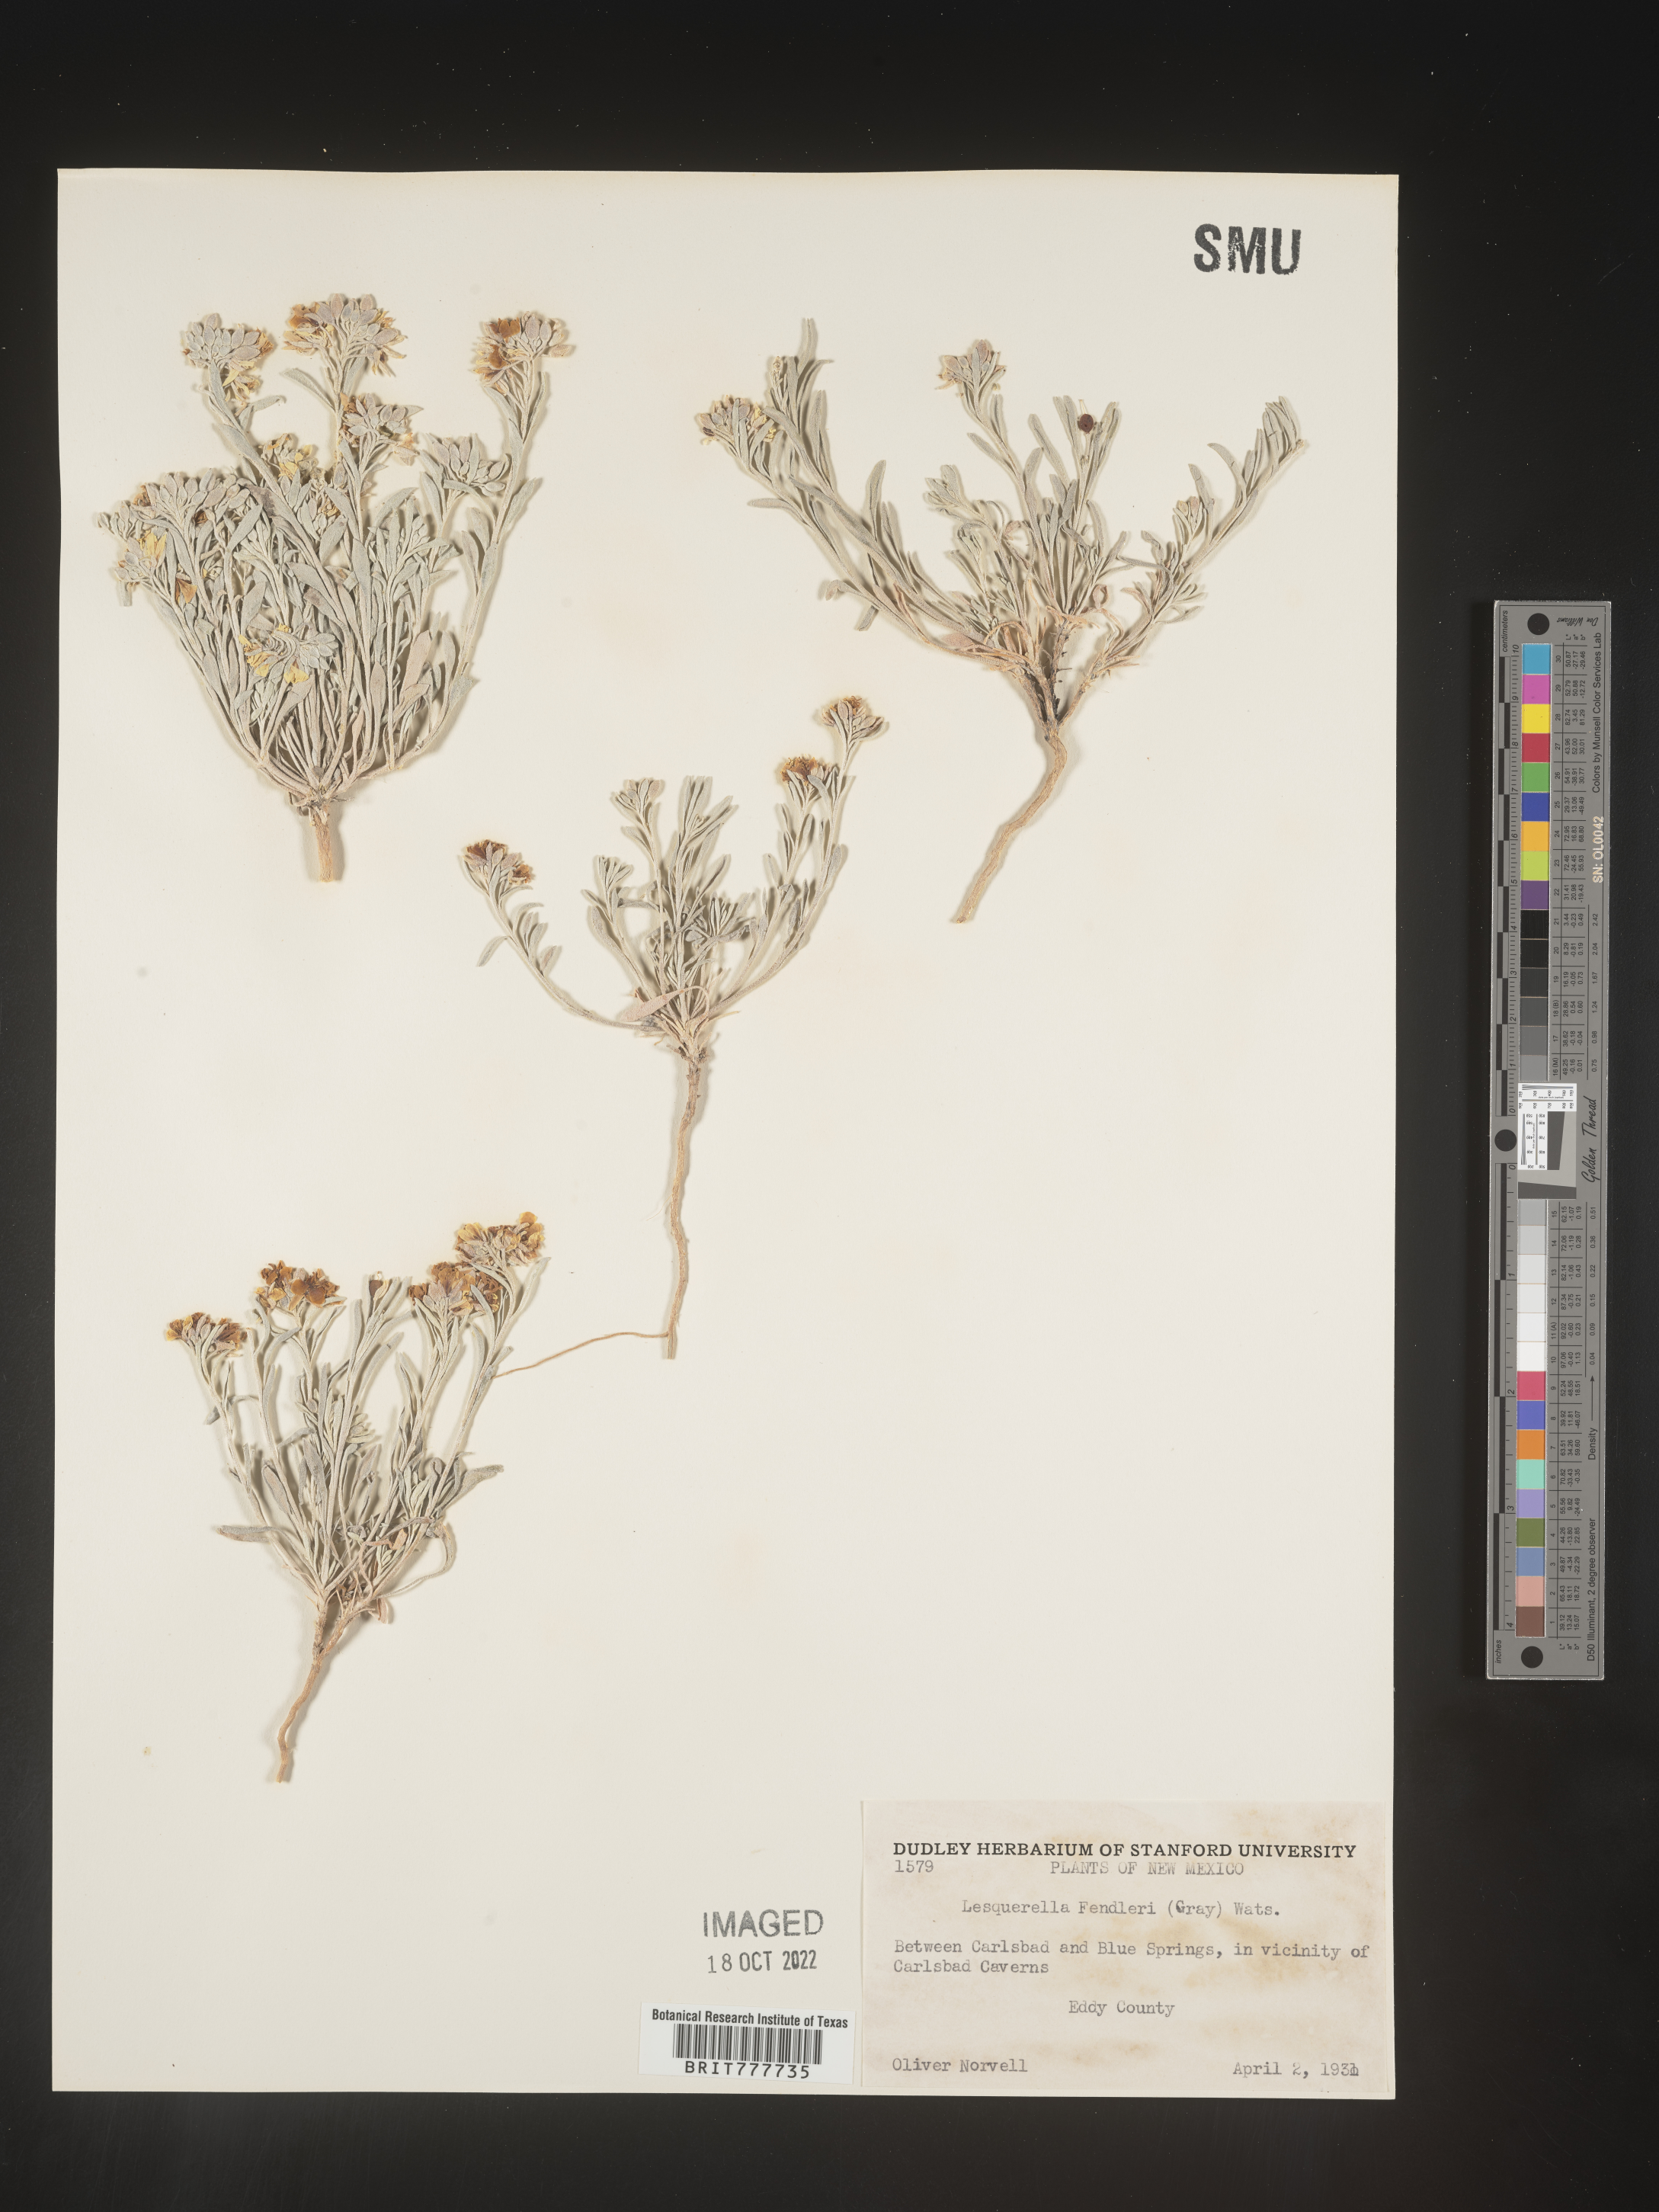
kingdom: Plantae
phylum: Tracheophyta
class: Magnoliopsida
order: Brassicales
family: Brassicaceae
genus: Physaria
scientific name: Physaria fendleri
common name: Fendler's bladderpod
